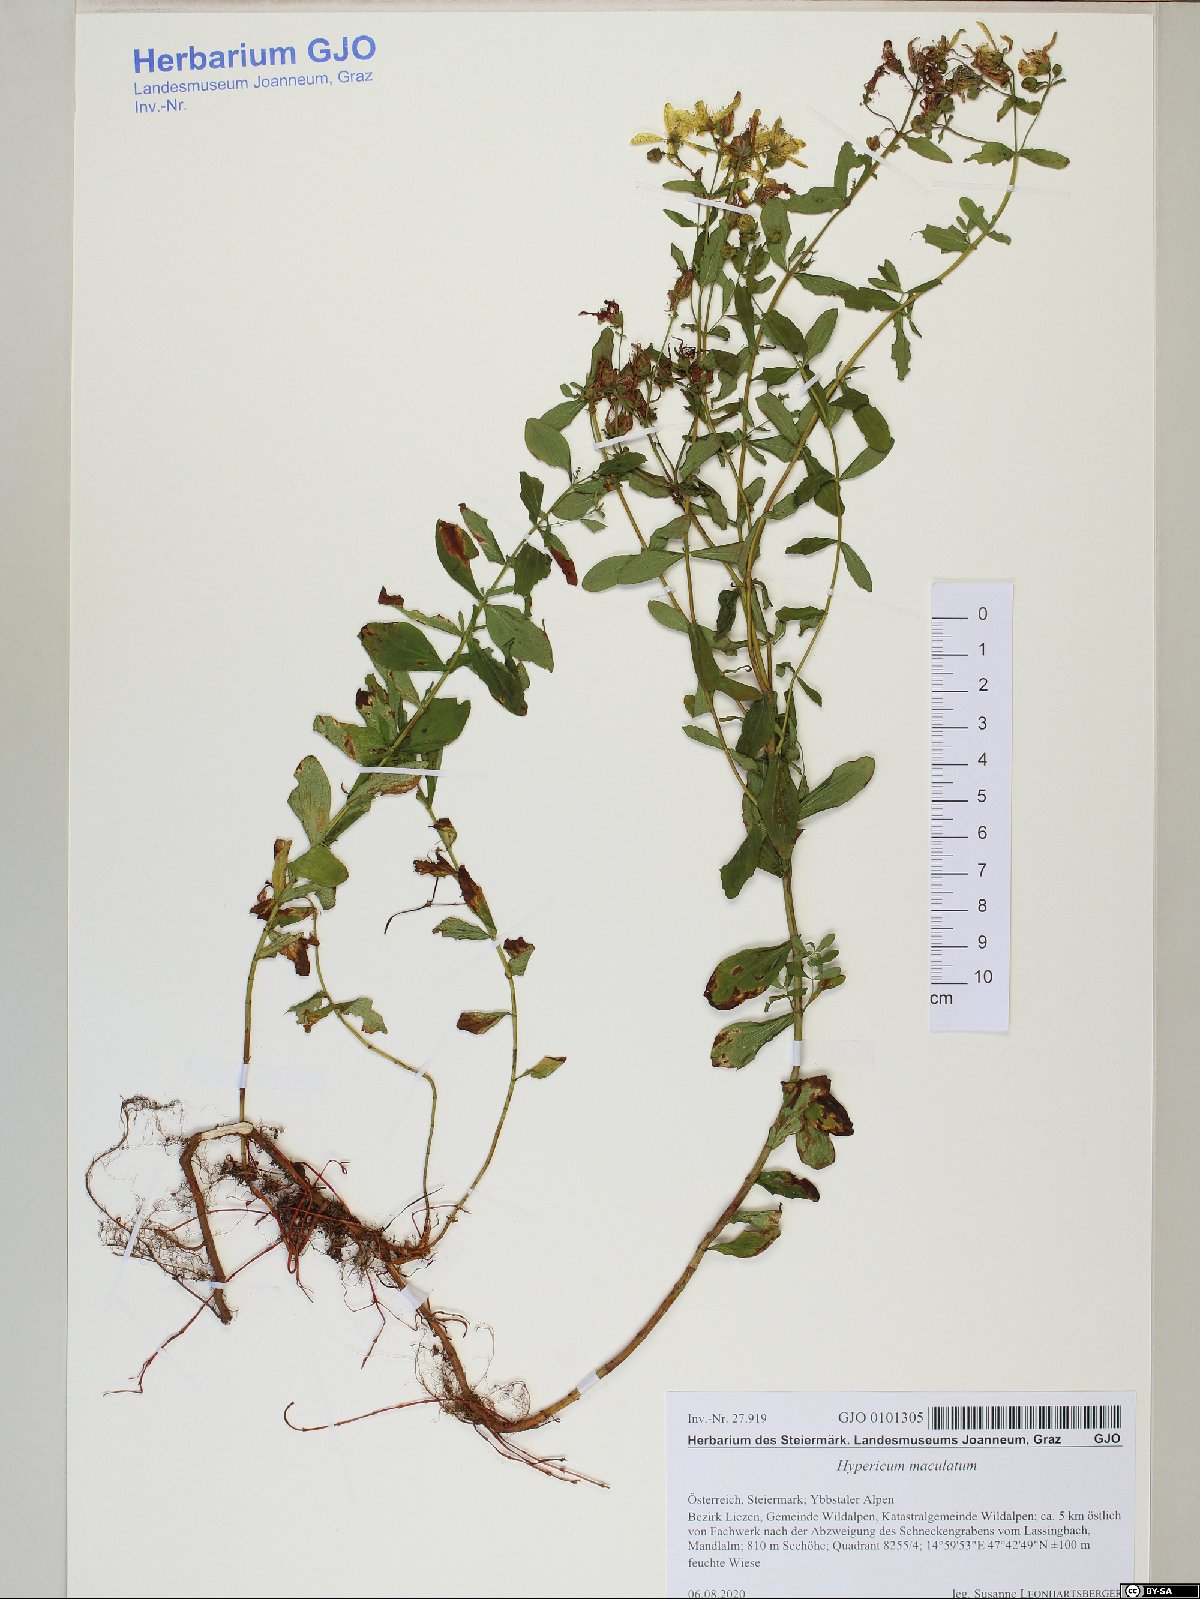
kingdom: Plantae
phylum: Tracheophyta
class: Magnoliopsida
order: Malpighiales
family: Hypericaceae
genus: Hypericum
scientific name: Hypericum maculatum
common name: Imperforate st. john's-wort
